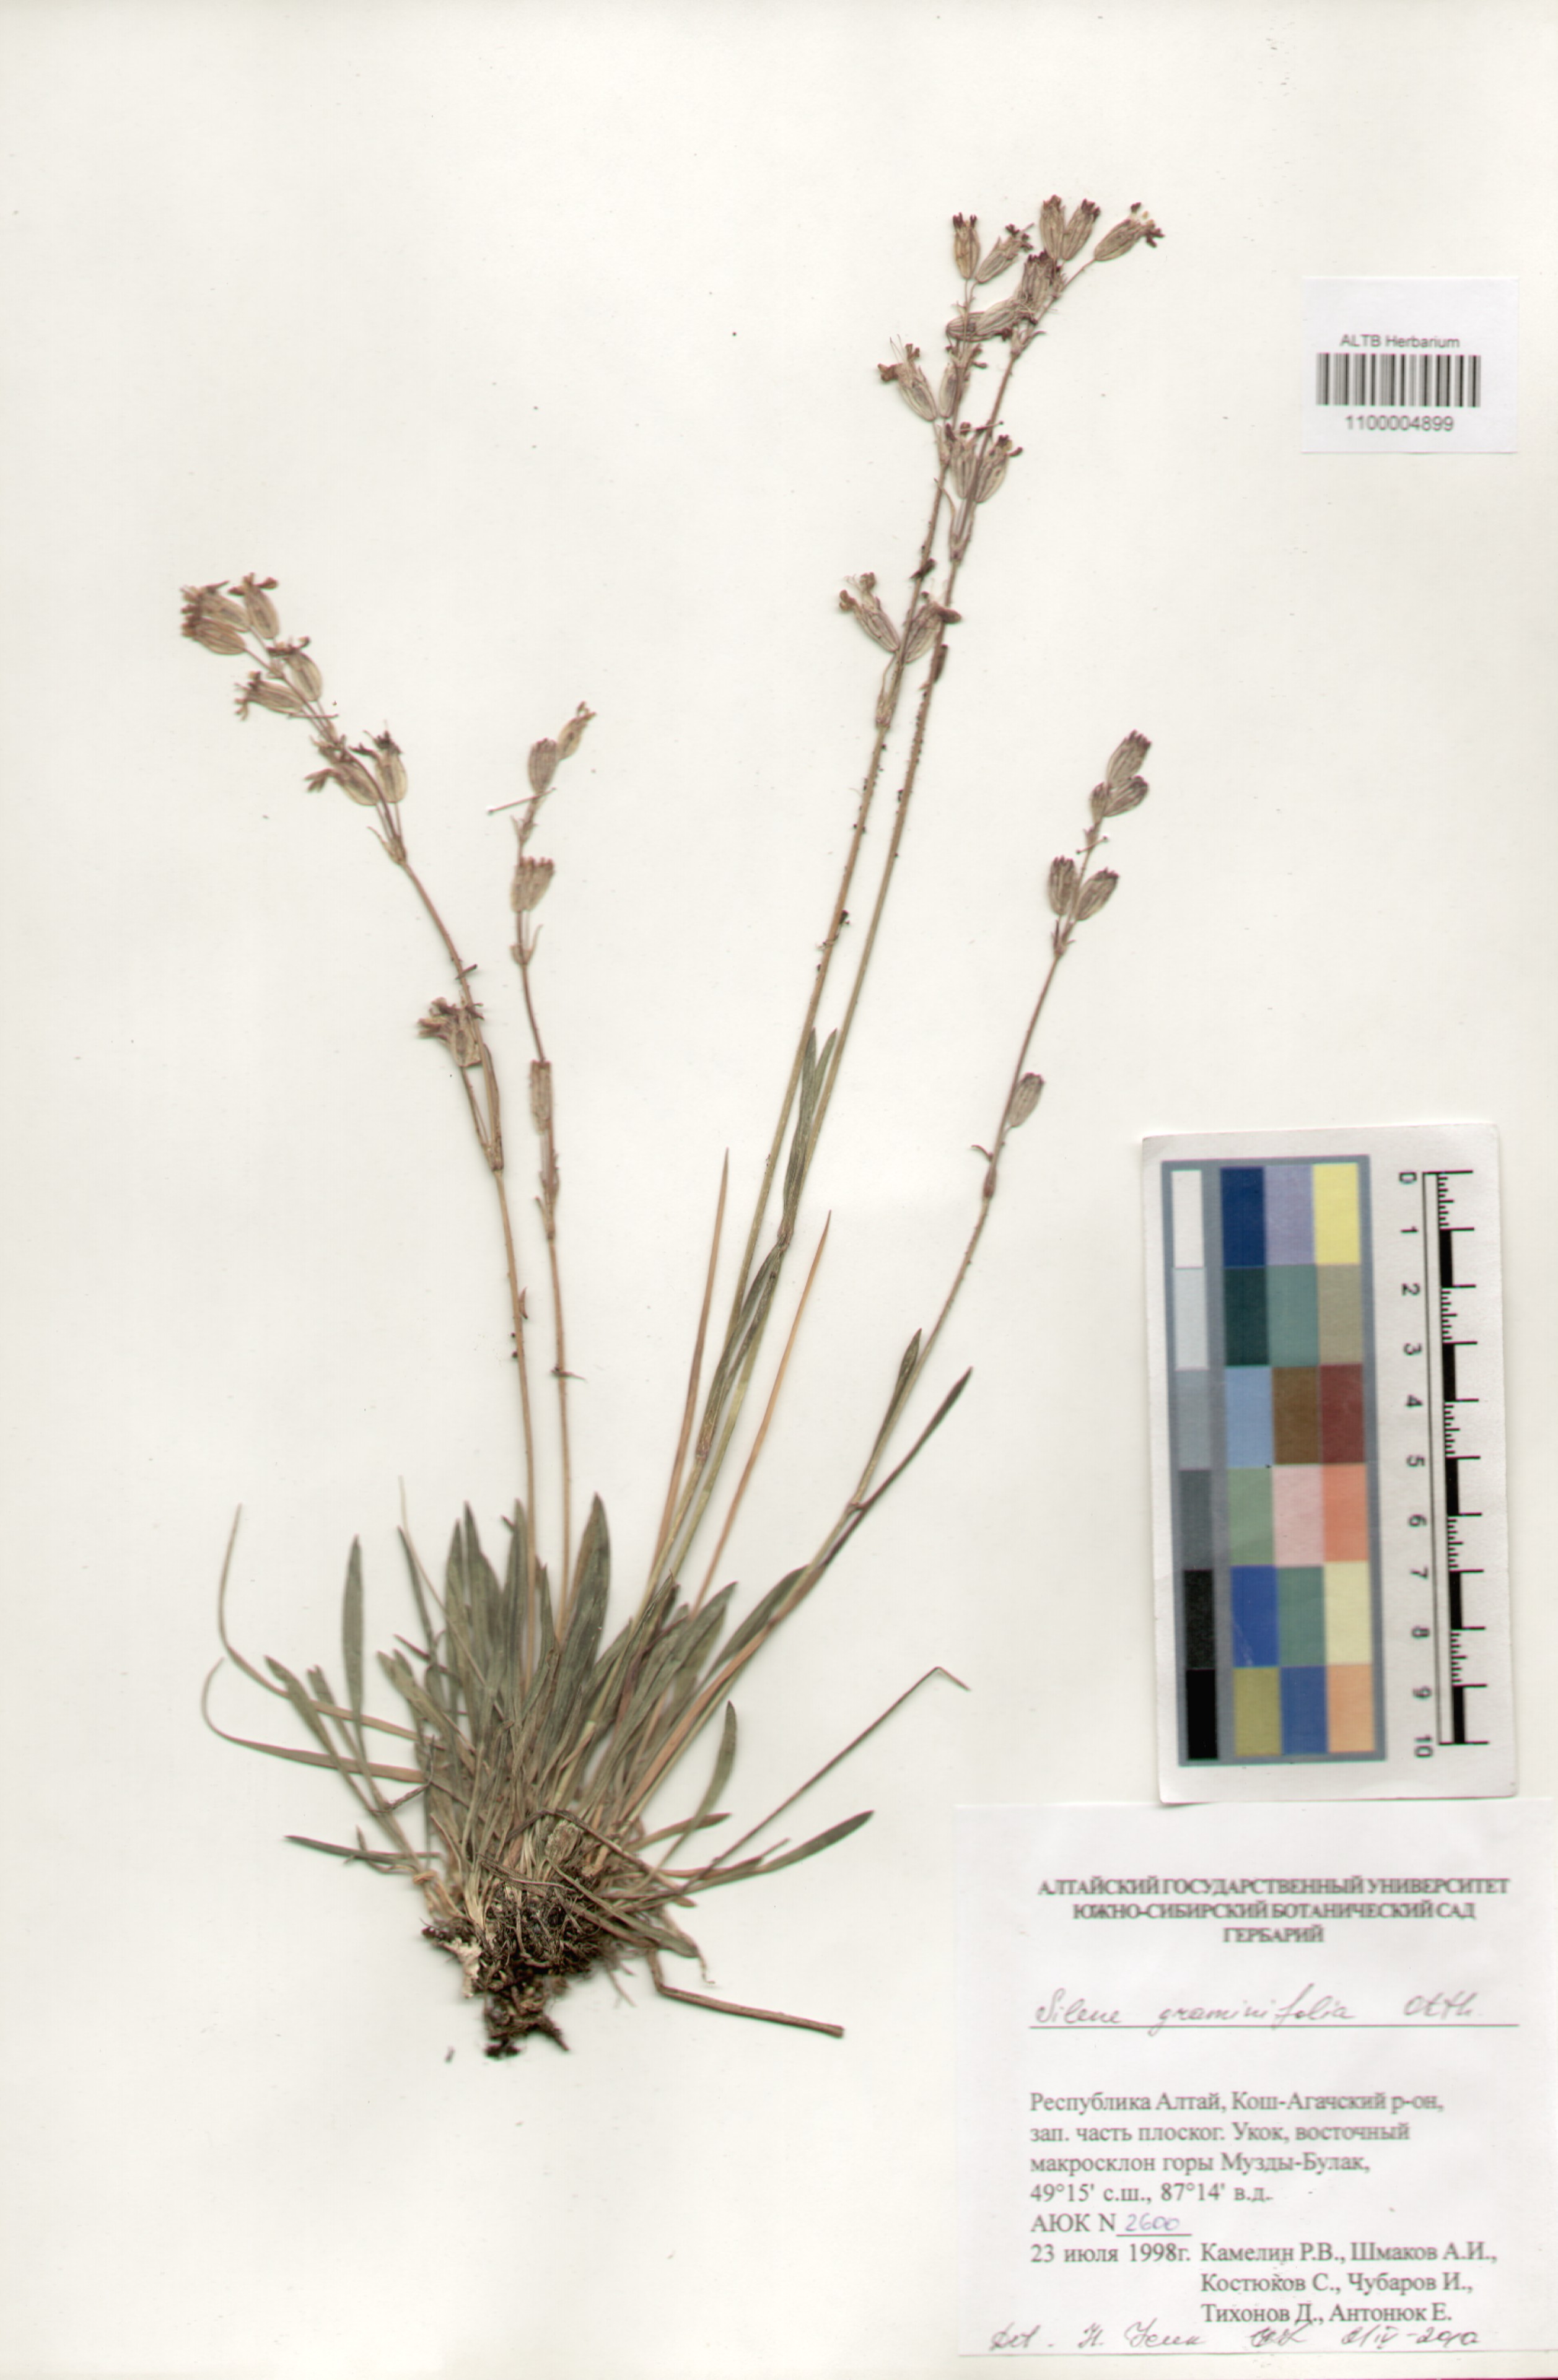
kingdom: Plantae
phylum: Tracheophyta
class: Magnoliopsida
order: Caryophyllales
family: Caryophyllaceae
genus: Silene
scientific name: Silene graminifolia
